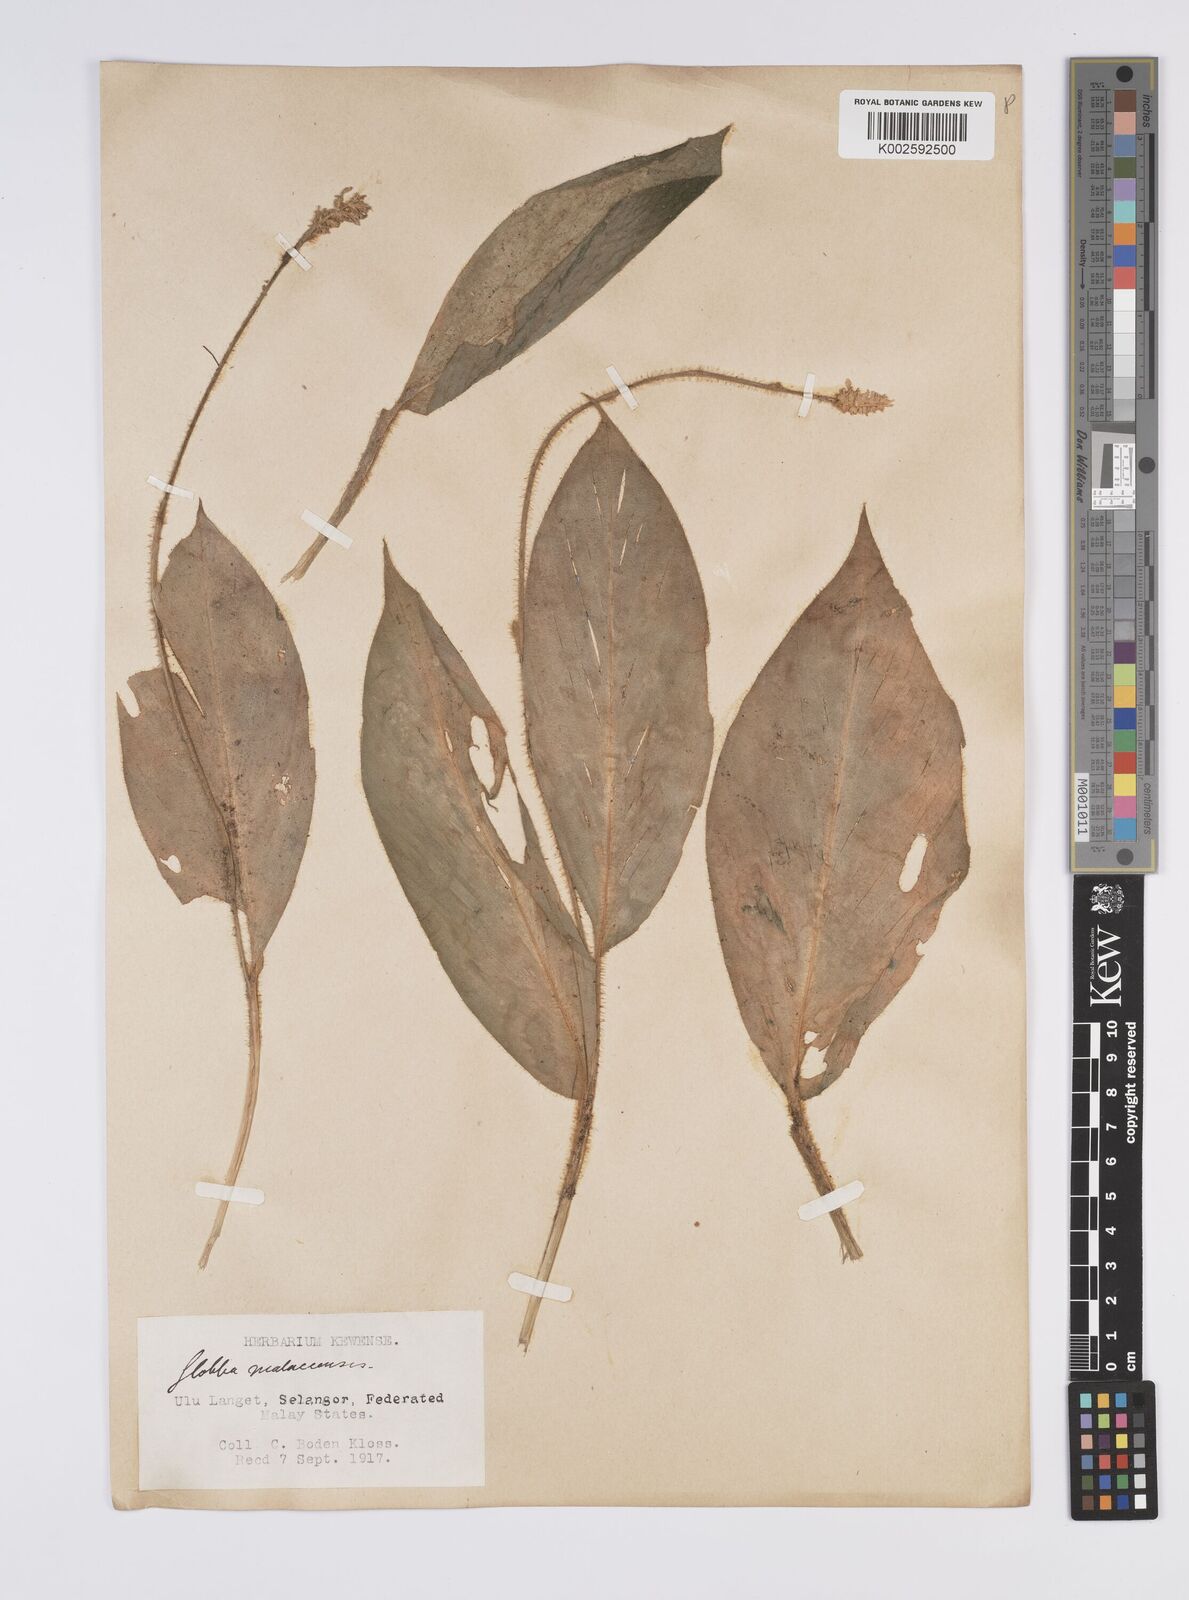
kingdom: Plantae
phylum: Tracheophyta
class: Liliopsida
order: Zingiberales
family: Zingiberaceae
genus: Globba
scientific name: Globba aurantiaca
